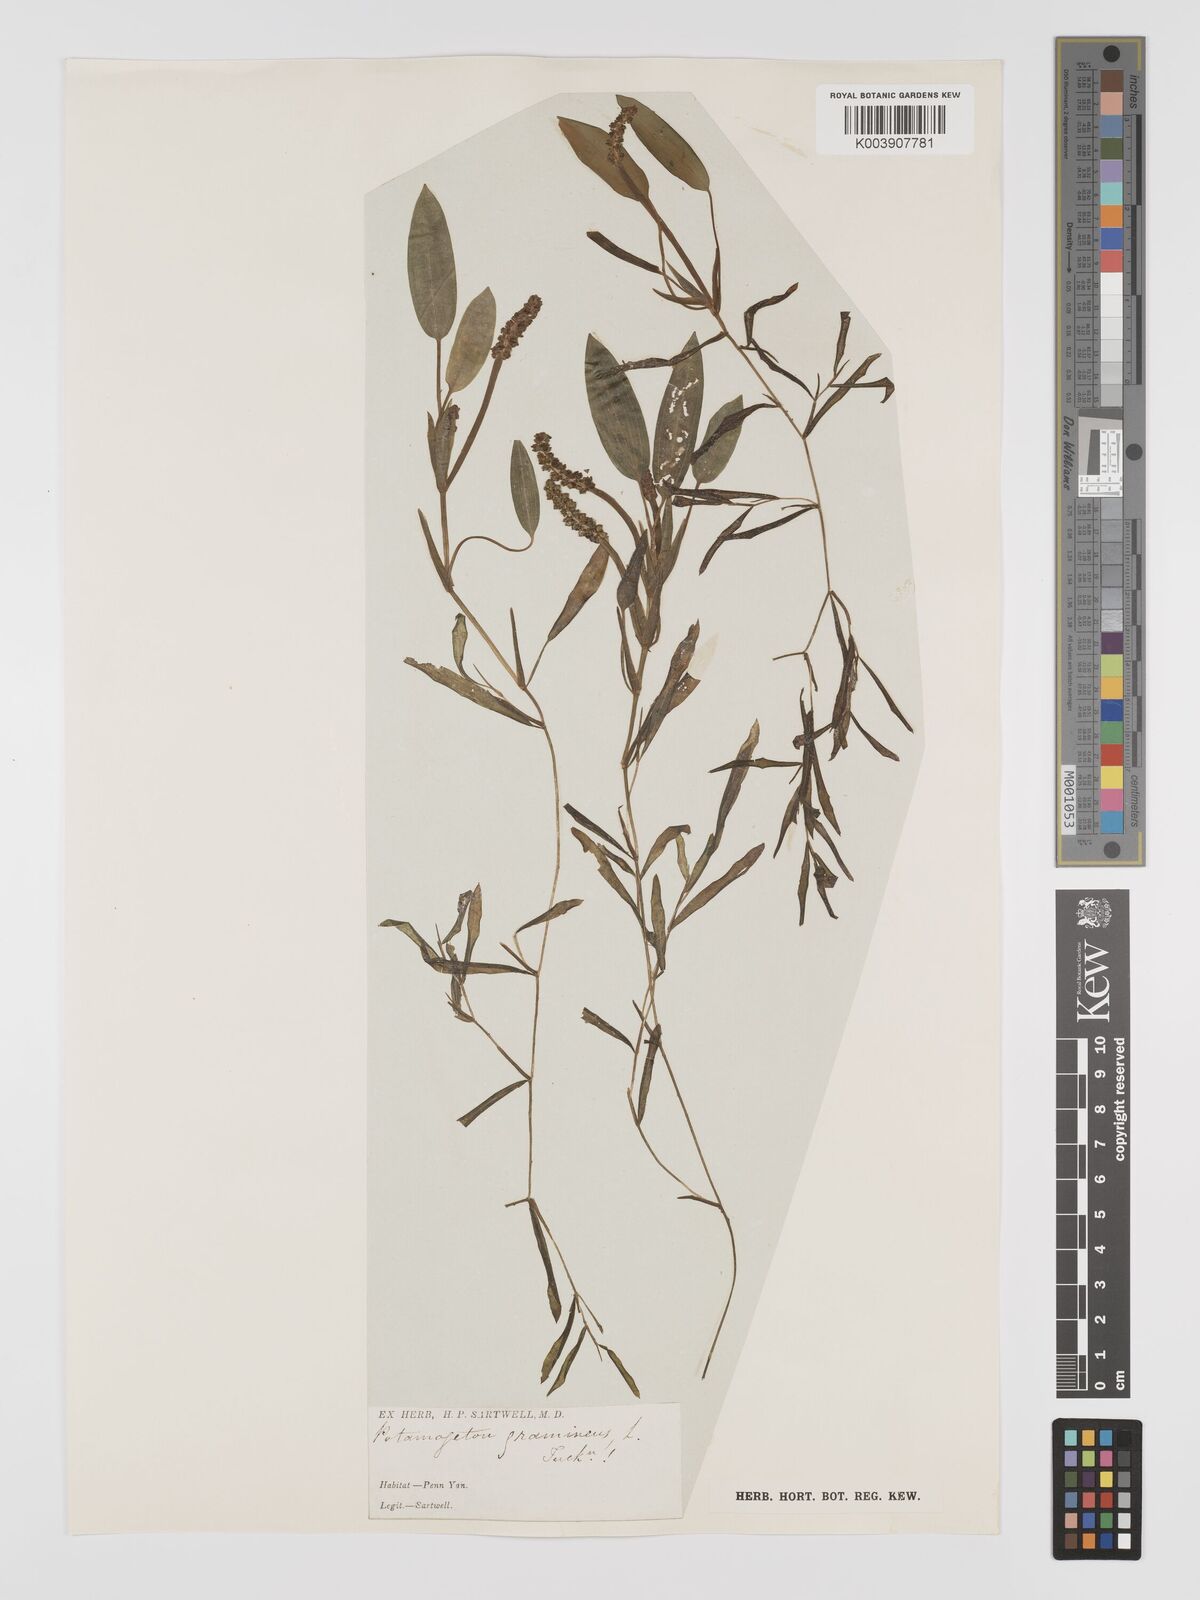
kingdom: Plantae
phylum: Tracheophyta
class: Liliopsida
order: Alismatales
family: Potamogetonaceae
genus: Potamogeton
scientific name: Potamogeton gramineus
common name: Various-leaved pondweed
